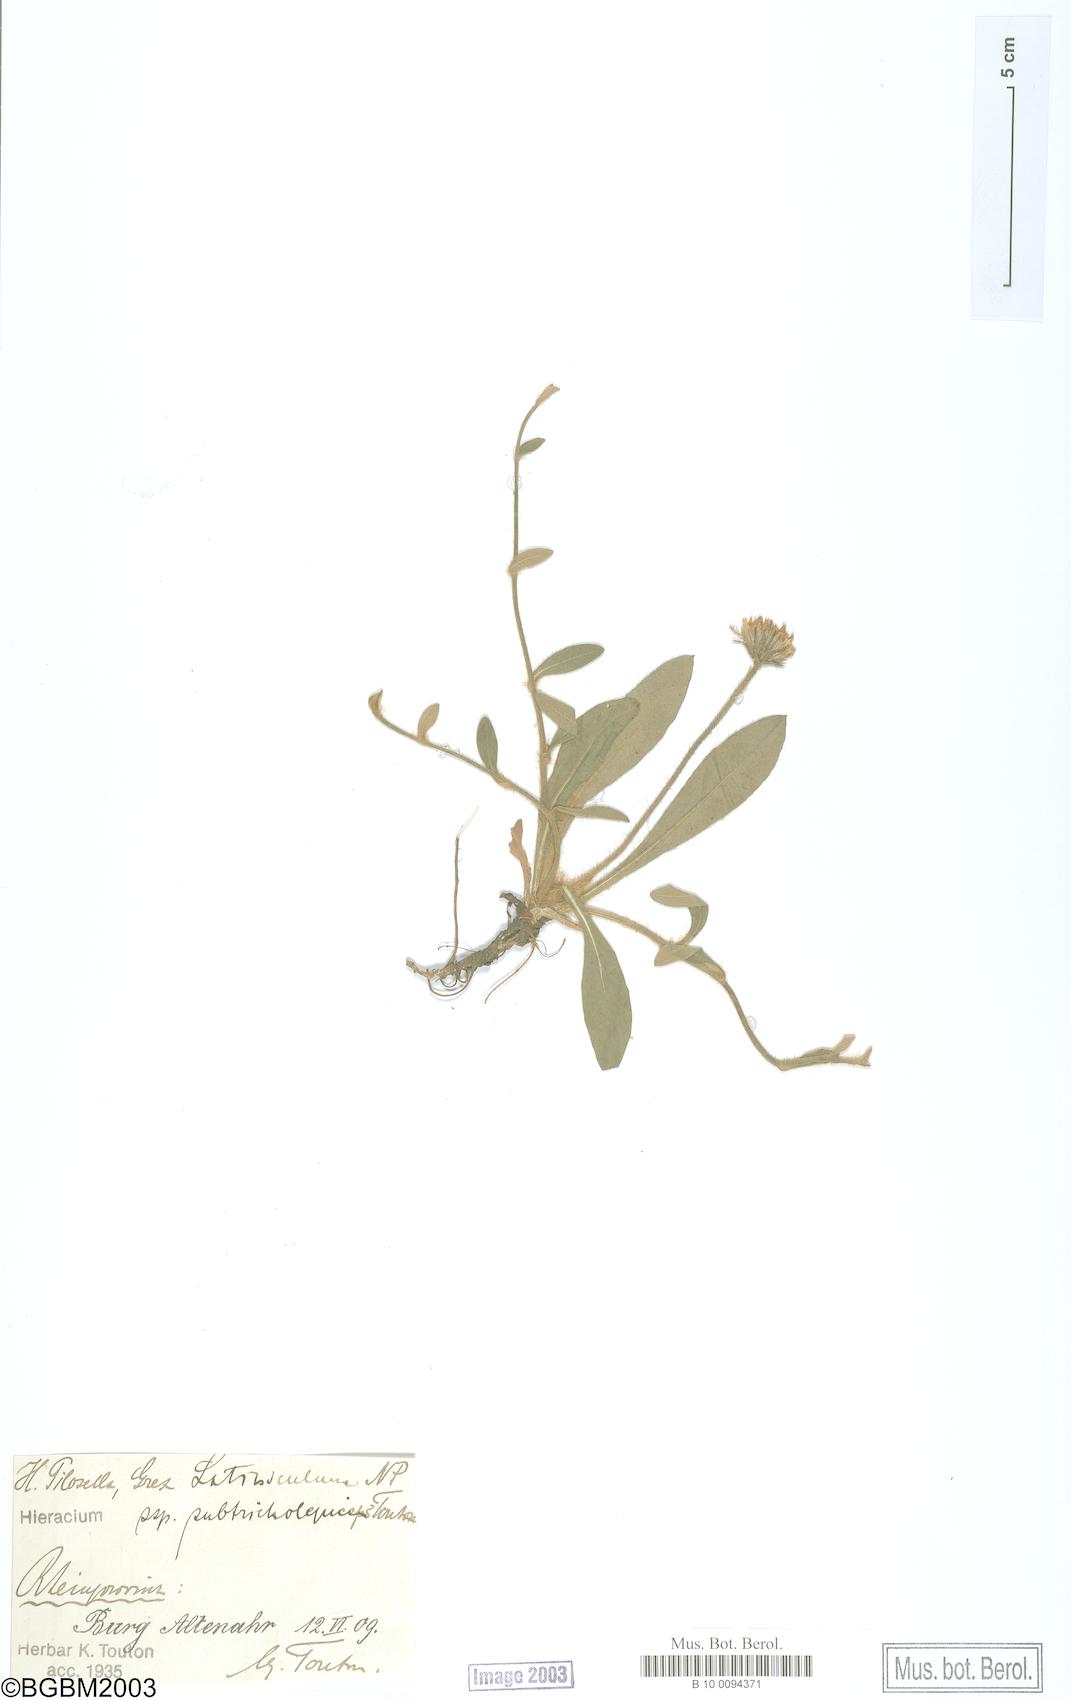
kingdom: Plantae
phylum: Tracheophyta
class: Magnoliopsida
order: Asterales
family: Asteraceae
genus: Pilosella
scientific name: Pilosella officinarum
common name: Mouse-ear hawkweed
